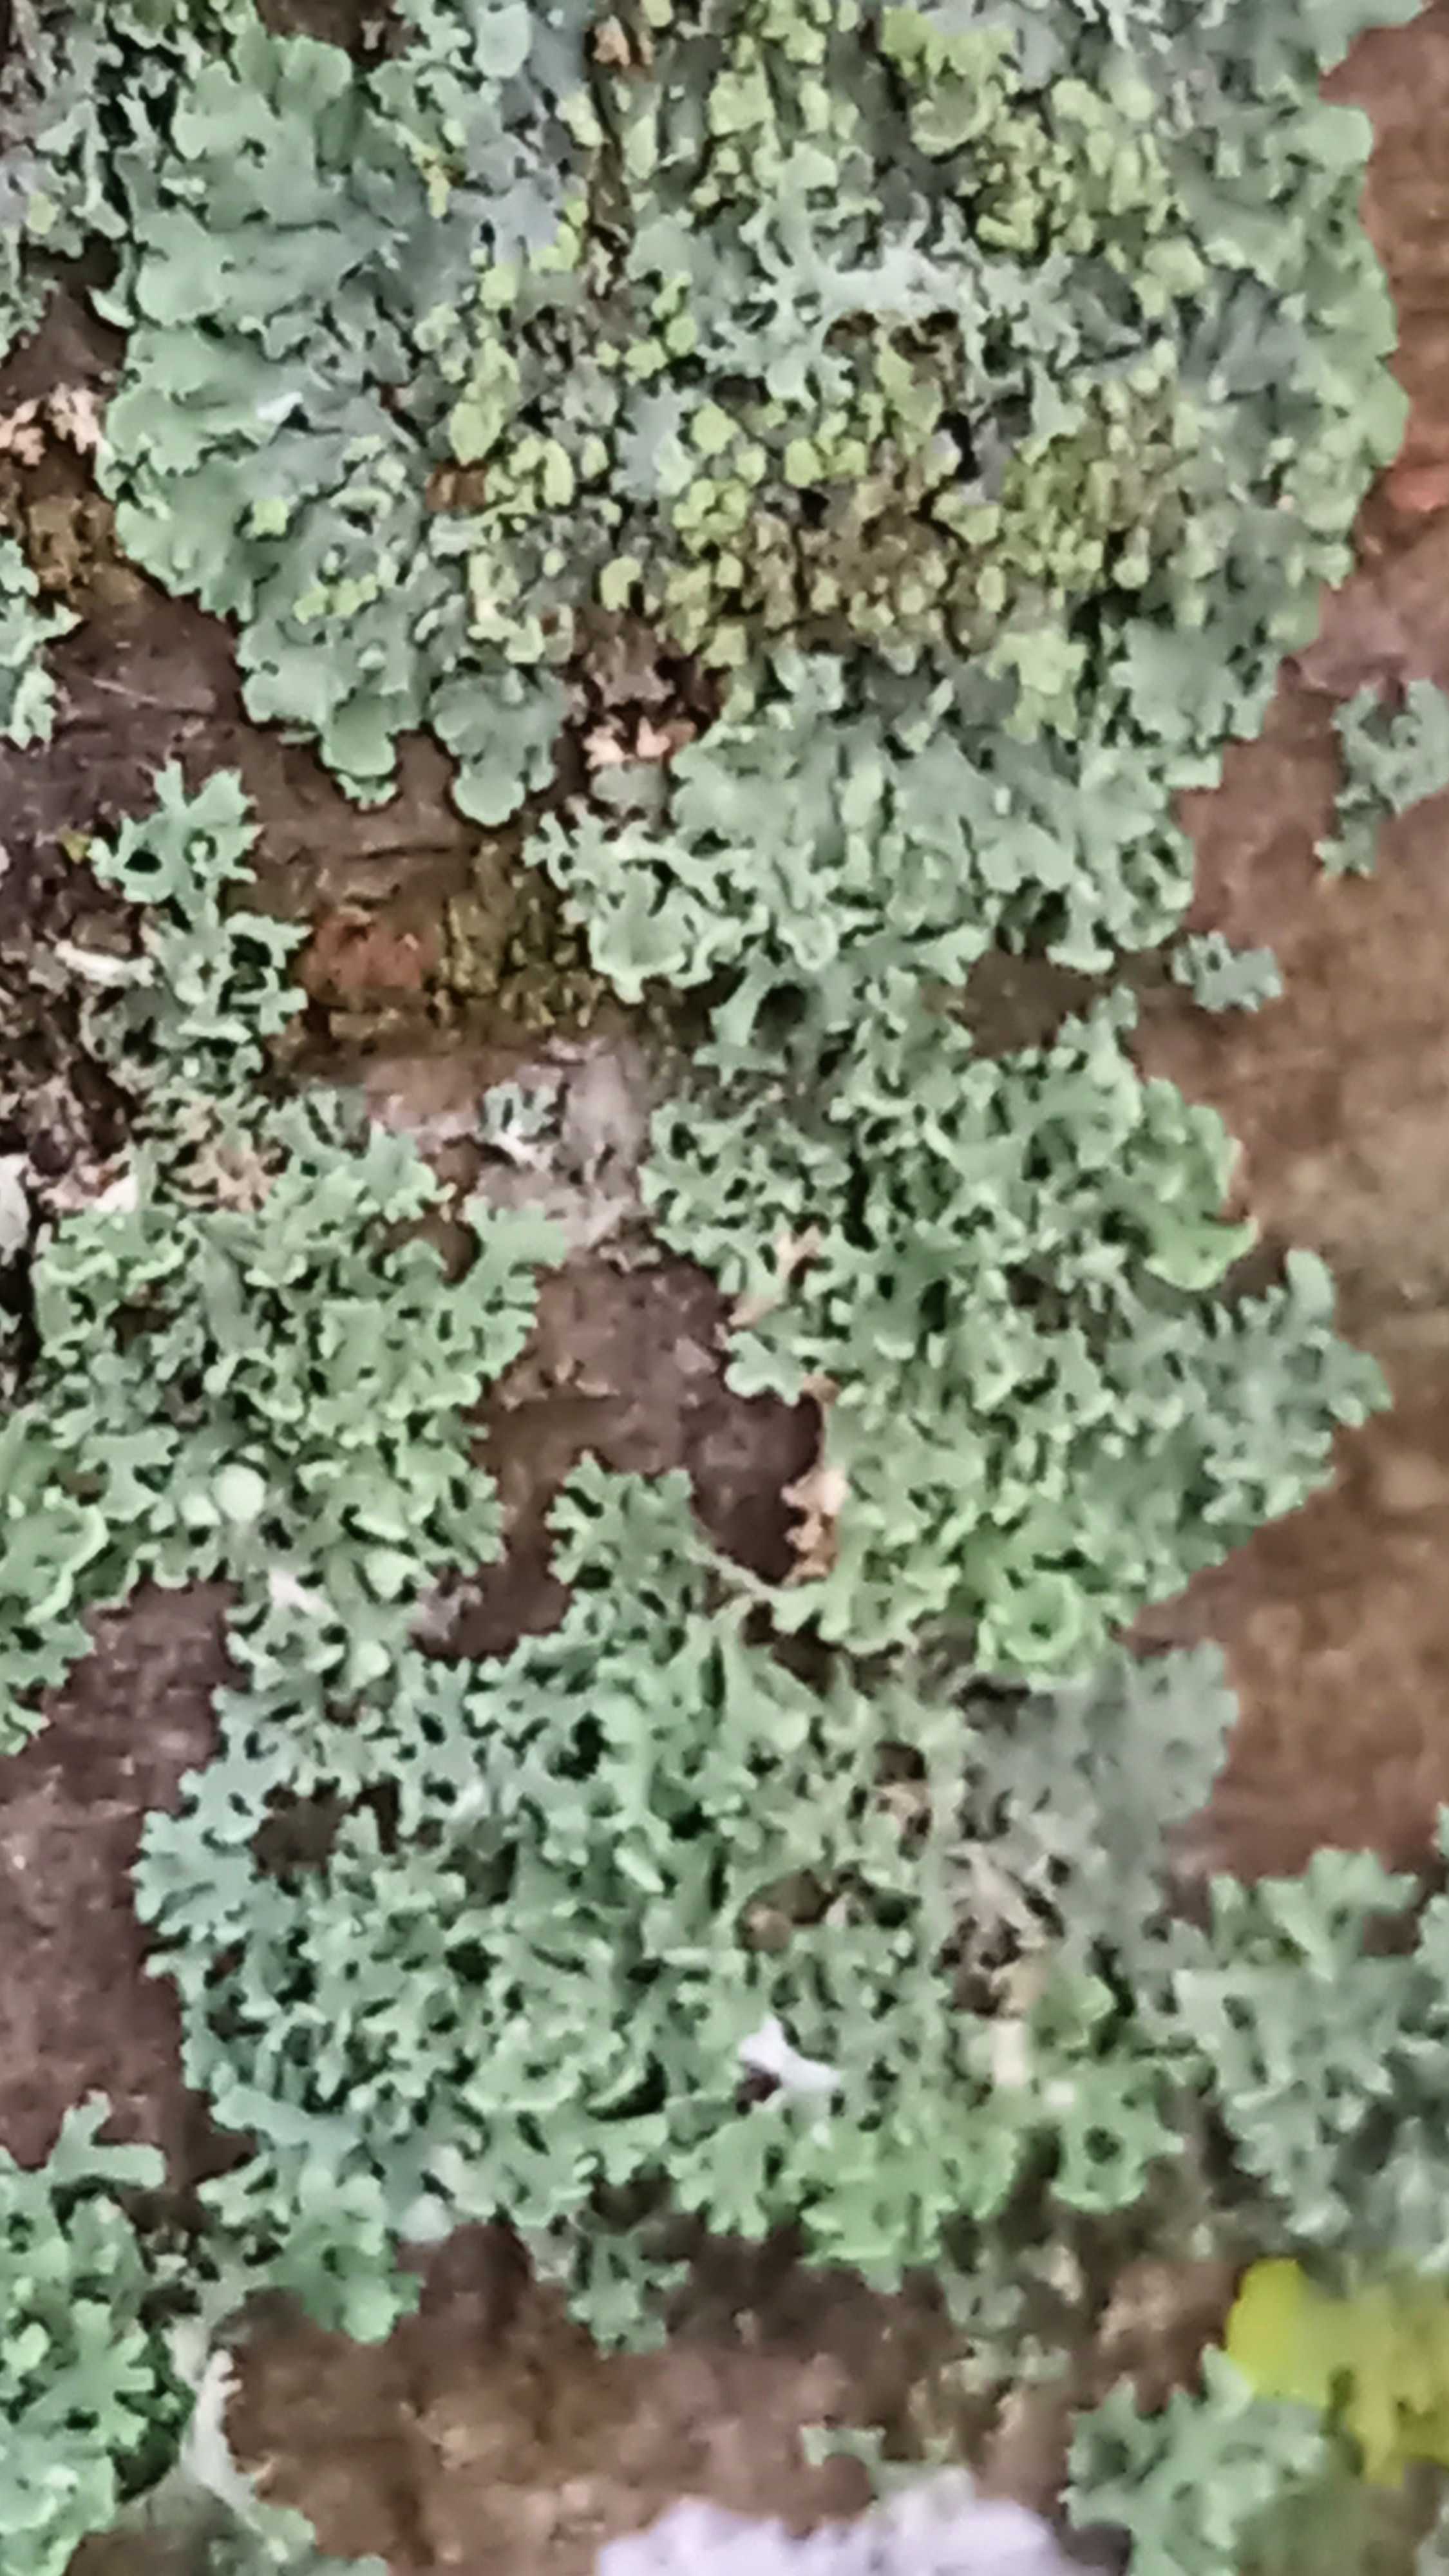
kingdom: Fungi
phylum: Ascomycota
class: Lecanoromycetes
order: Lecanorales
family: Parmeliaceae
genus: Lichen
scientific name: Lichen
